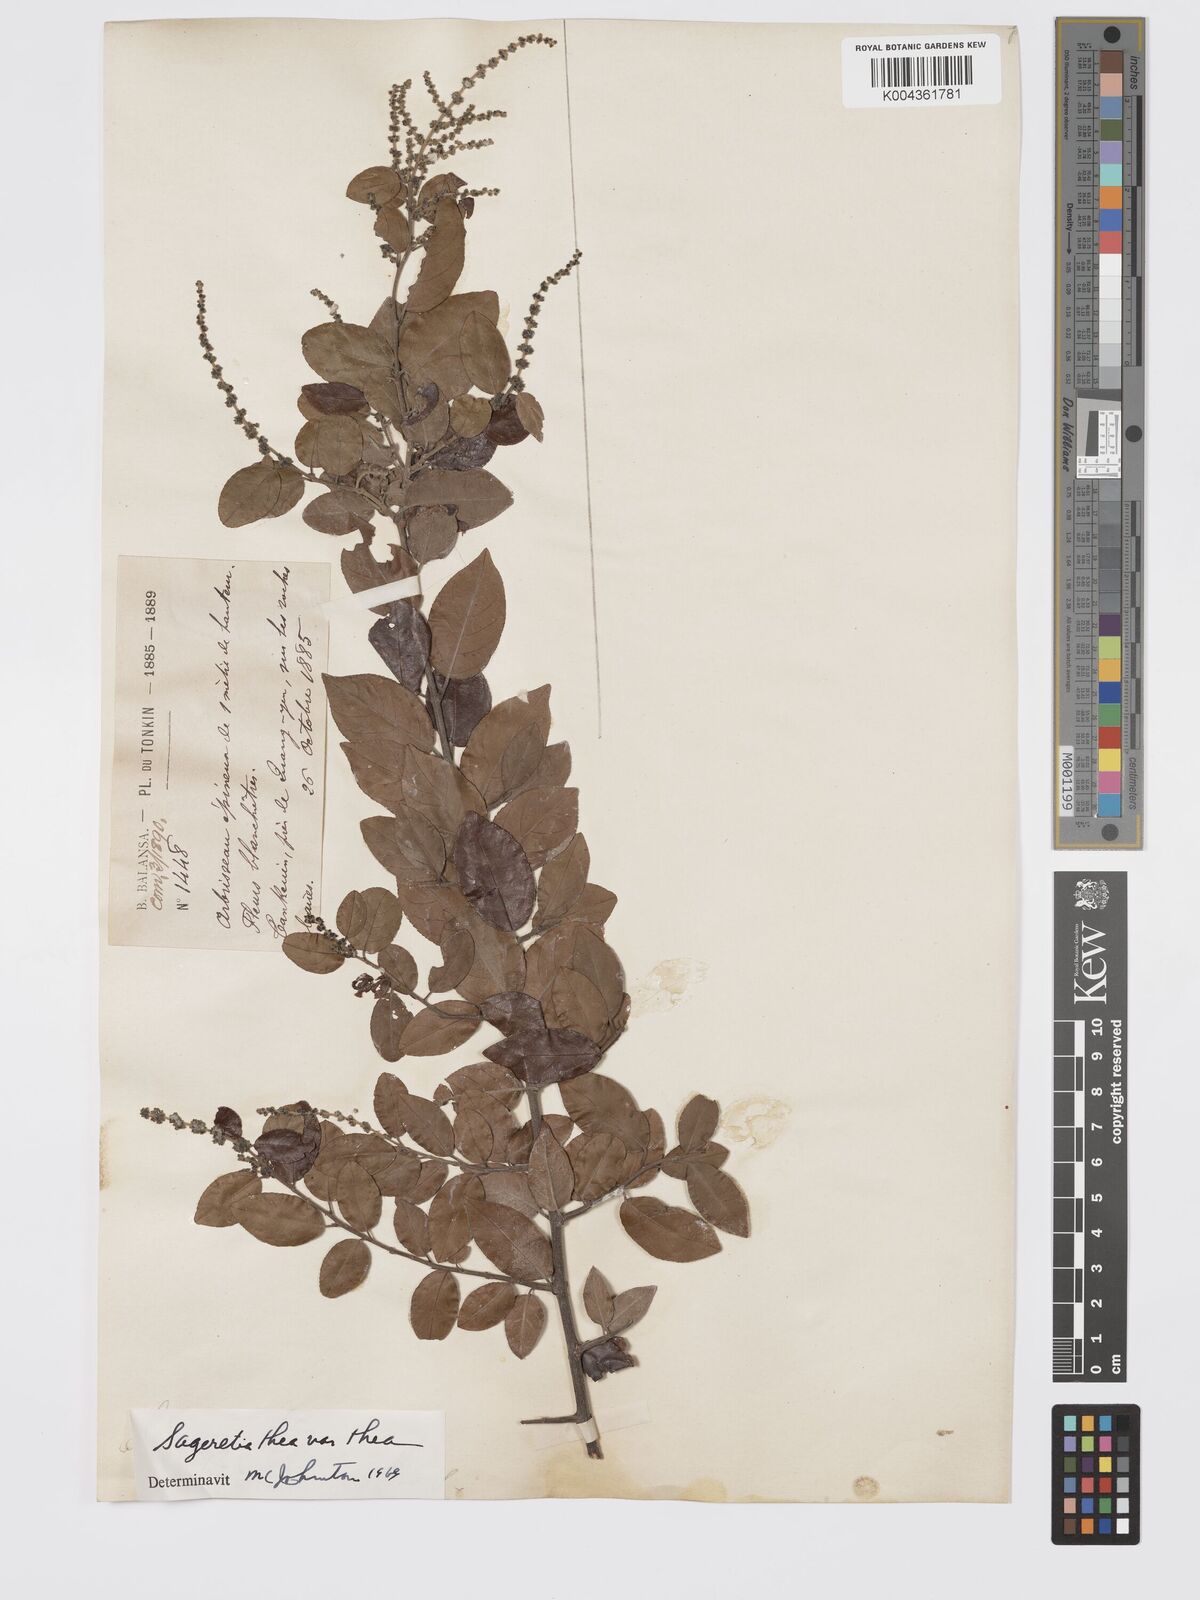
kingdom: Plantae
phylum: Tracheophyta
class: Magnoliopsida
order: Rosales
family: Rhamnaceae
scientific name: Rhamnaceae
